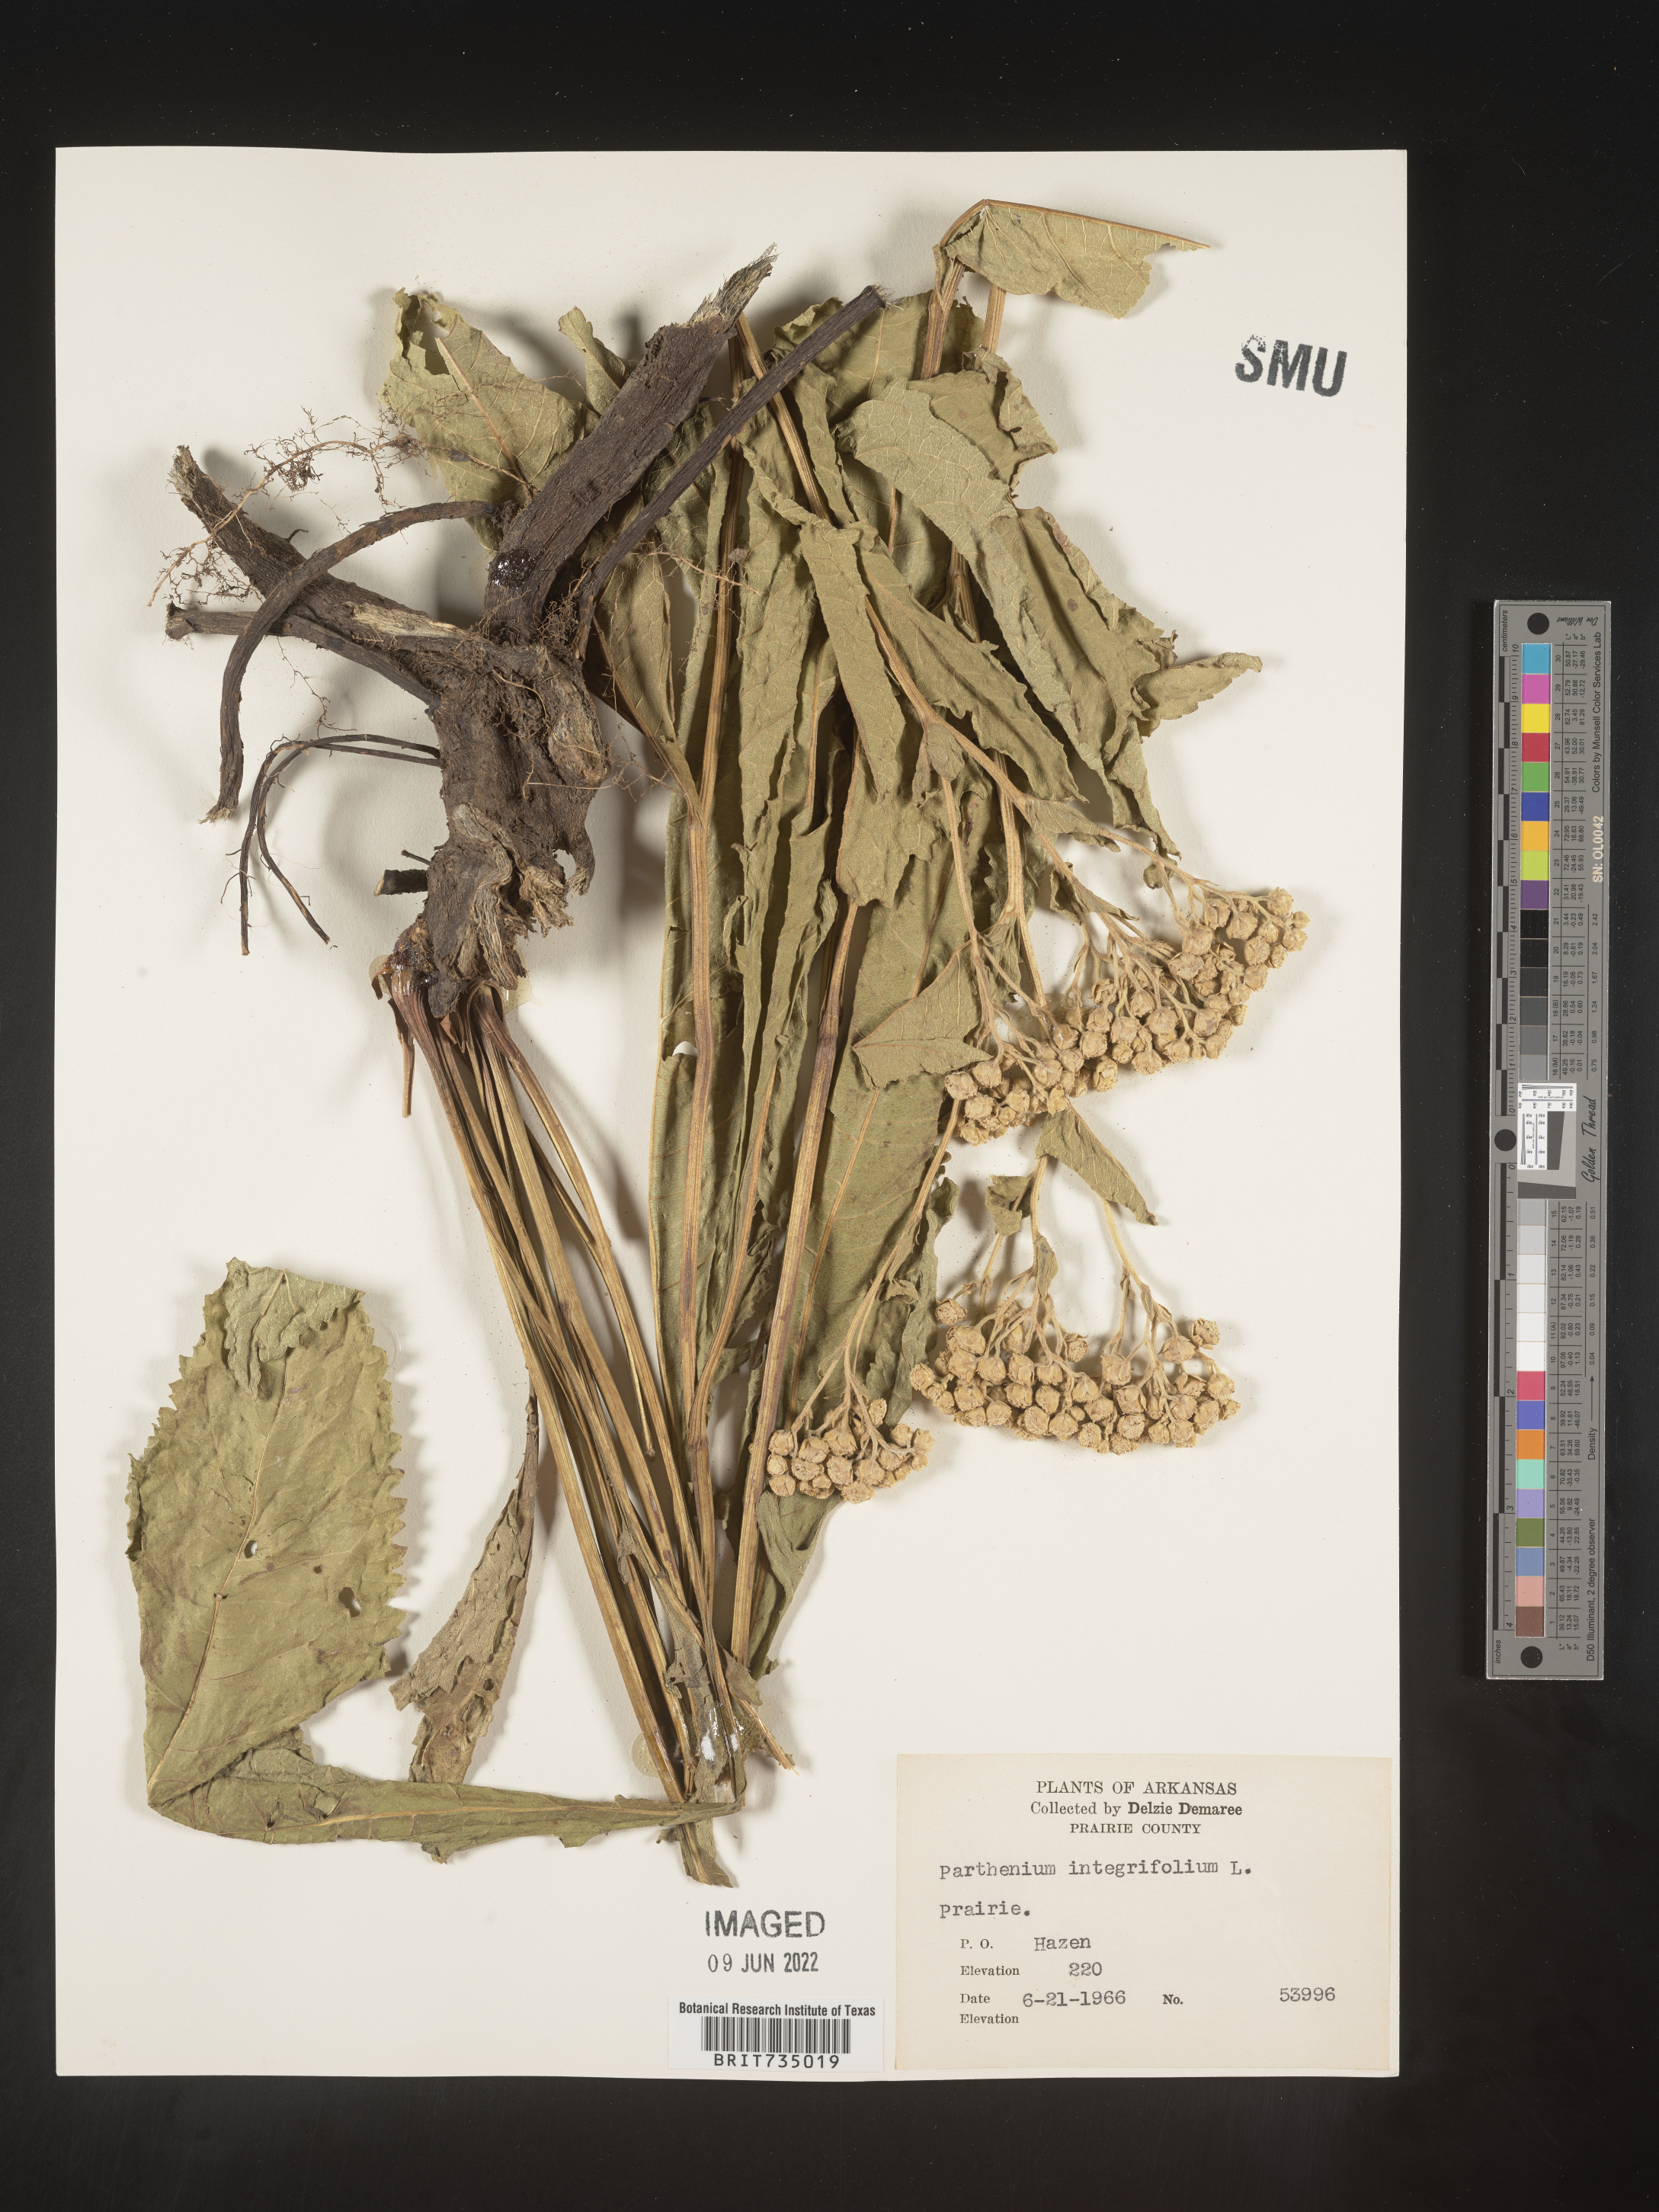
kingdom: Plantae
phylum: Tracheophyta
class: Magnoliopsida
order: Asterales
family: Asteraceae
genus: Parthenium
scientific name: Parthenium hispidum
